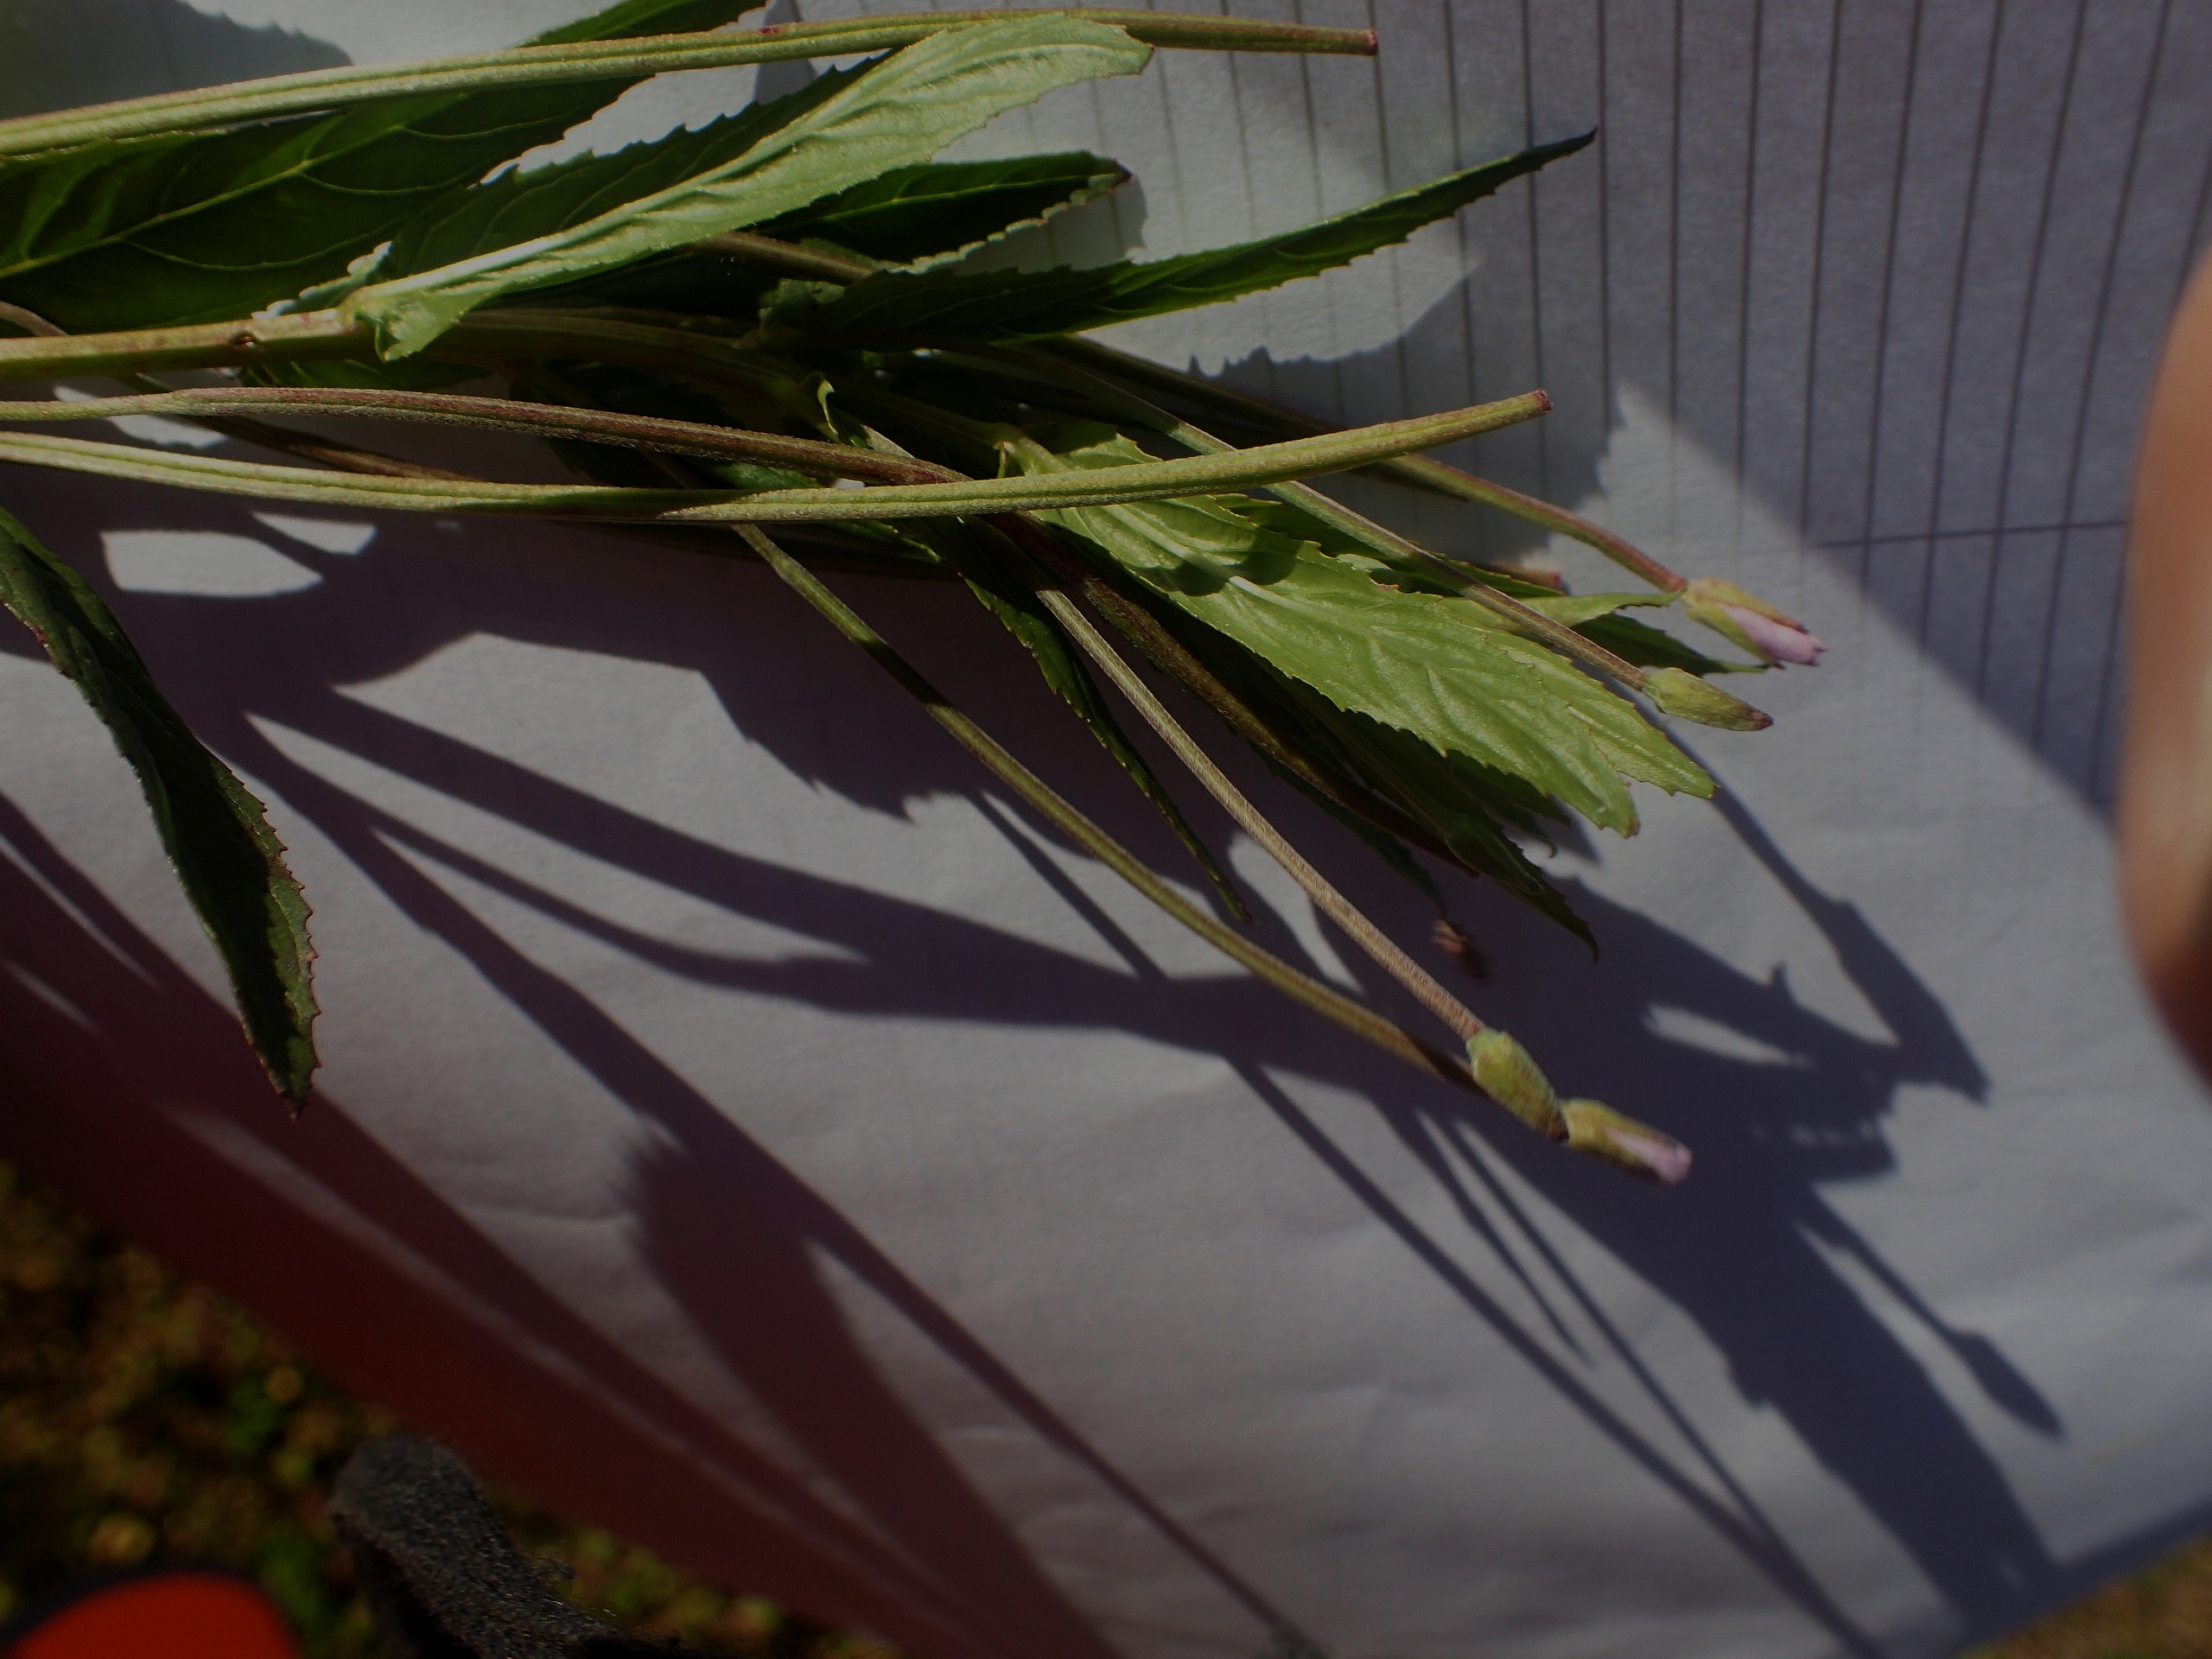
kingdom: Plantae
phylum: Tracheophyta
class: Magnoliopsida
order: Myrtales
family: Onagraceae
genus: Epilobium
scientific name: Epilobium tetragonum
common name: Kantet dueurt
